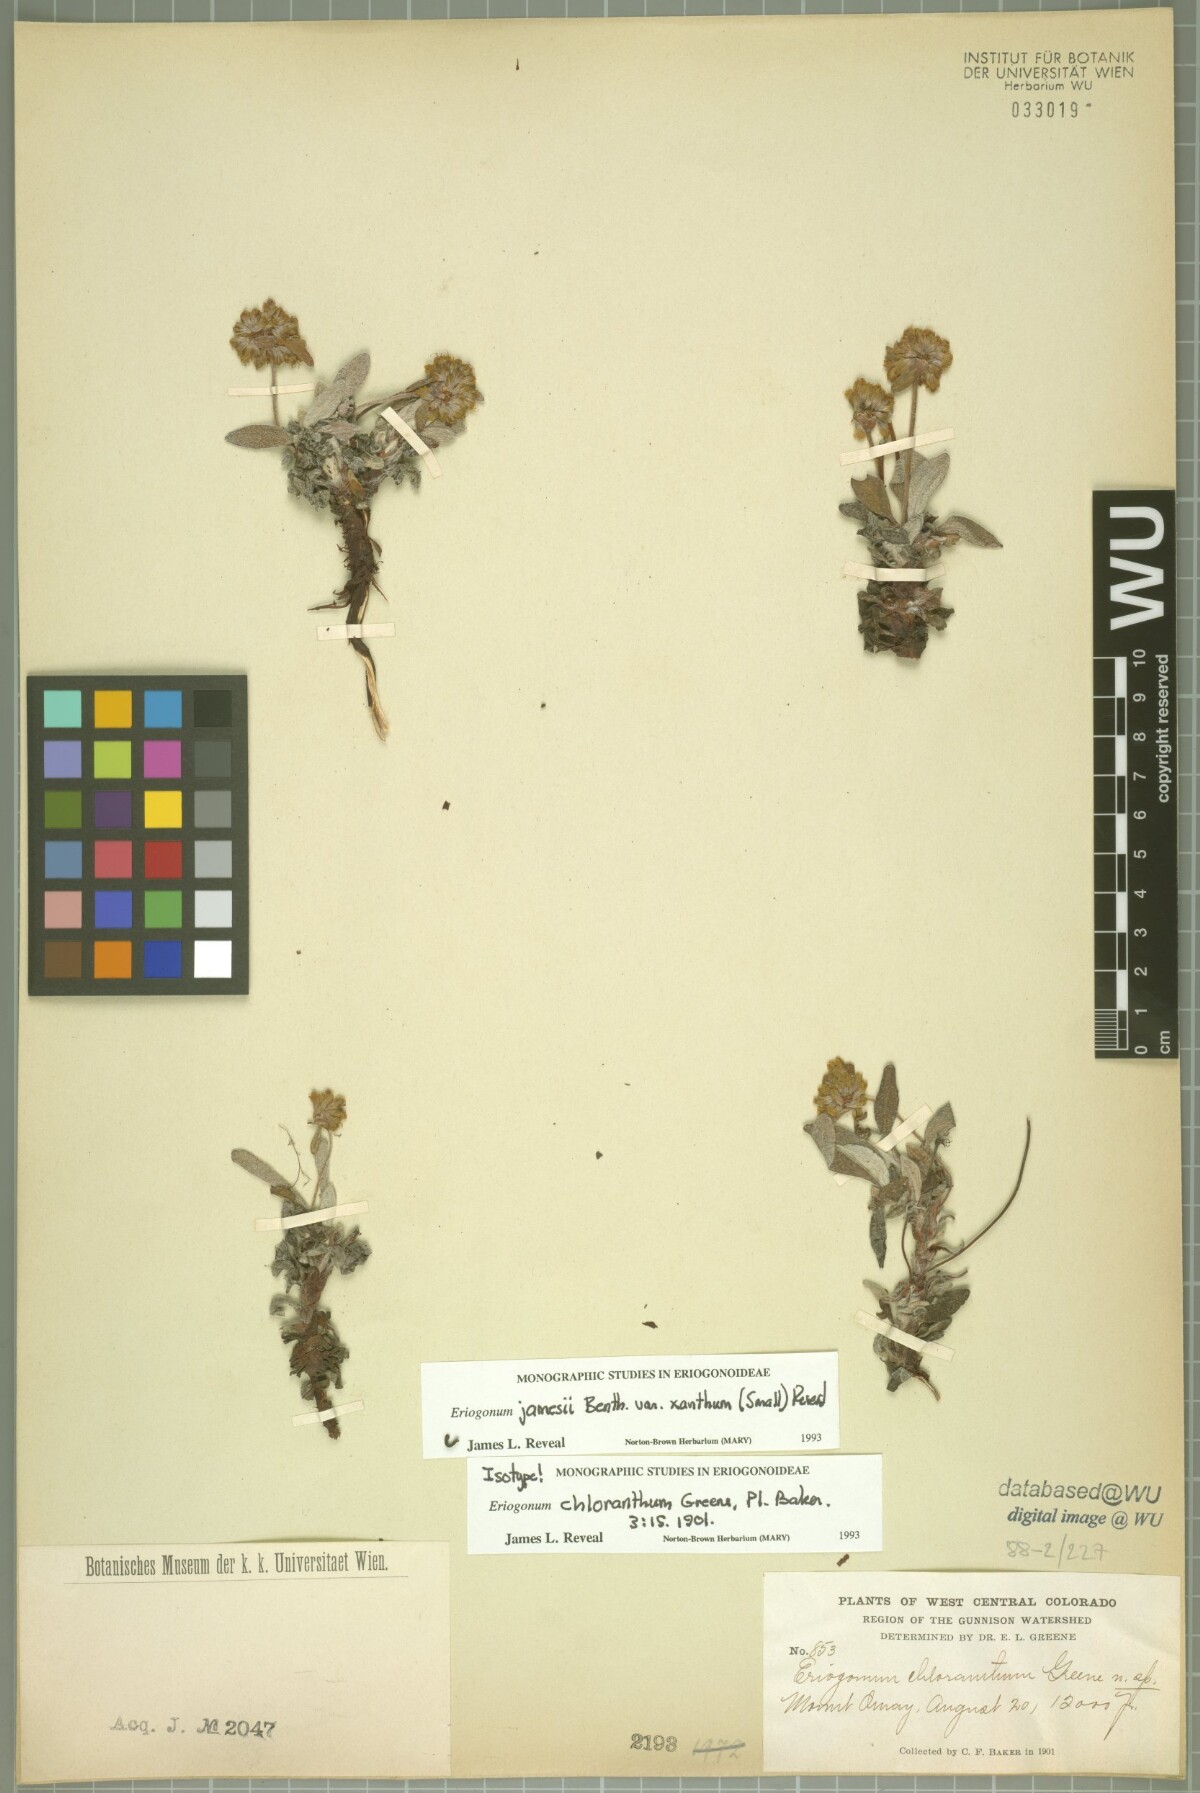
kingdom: Plantae
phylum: Tracheophyta
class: Magnoliopsida
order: Caryophyllales
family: Polygonaceae
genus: Eriogonum
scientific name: Eriogonum arcuatum
